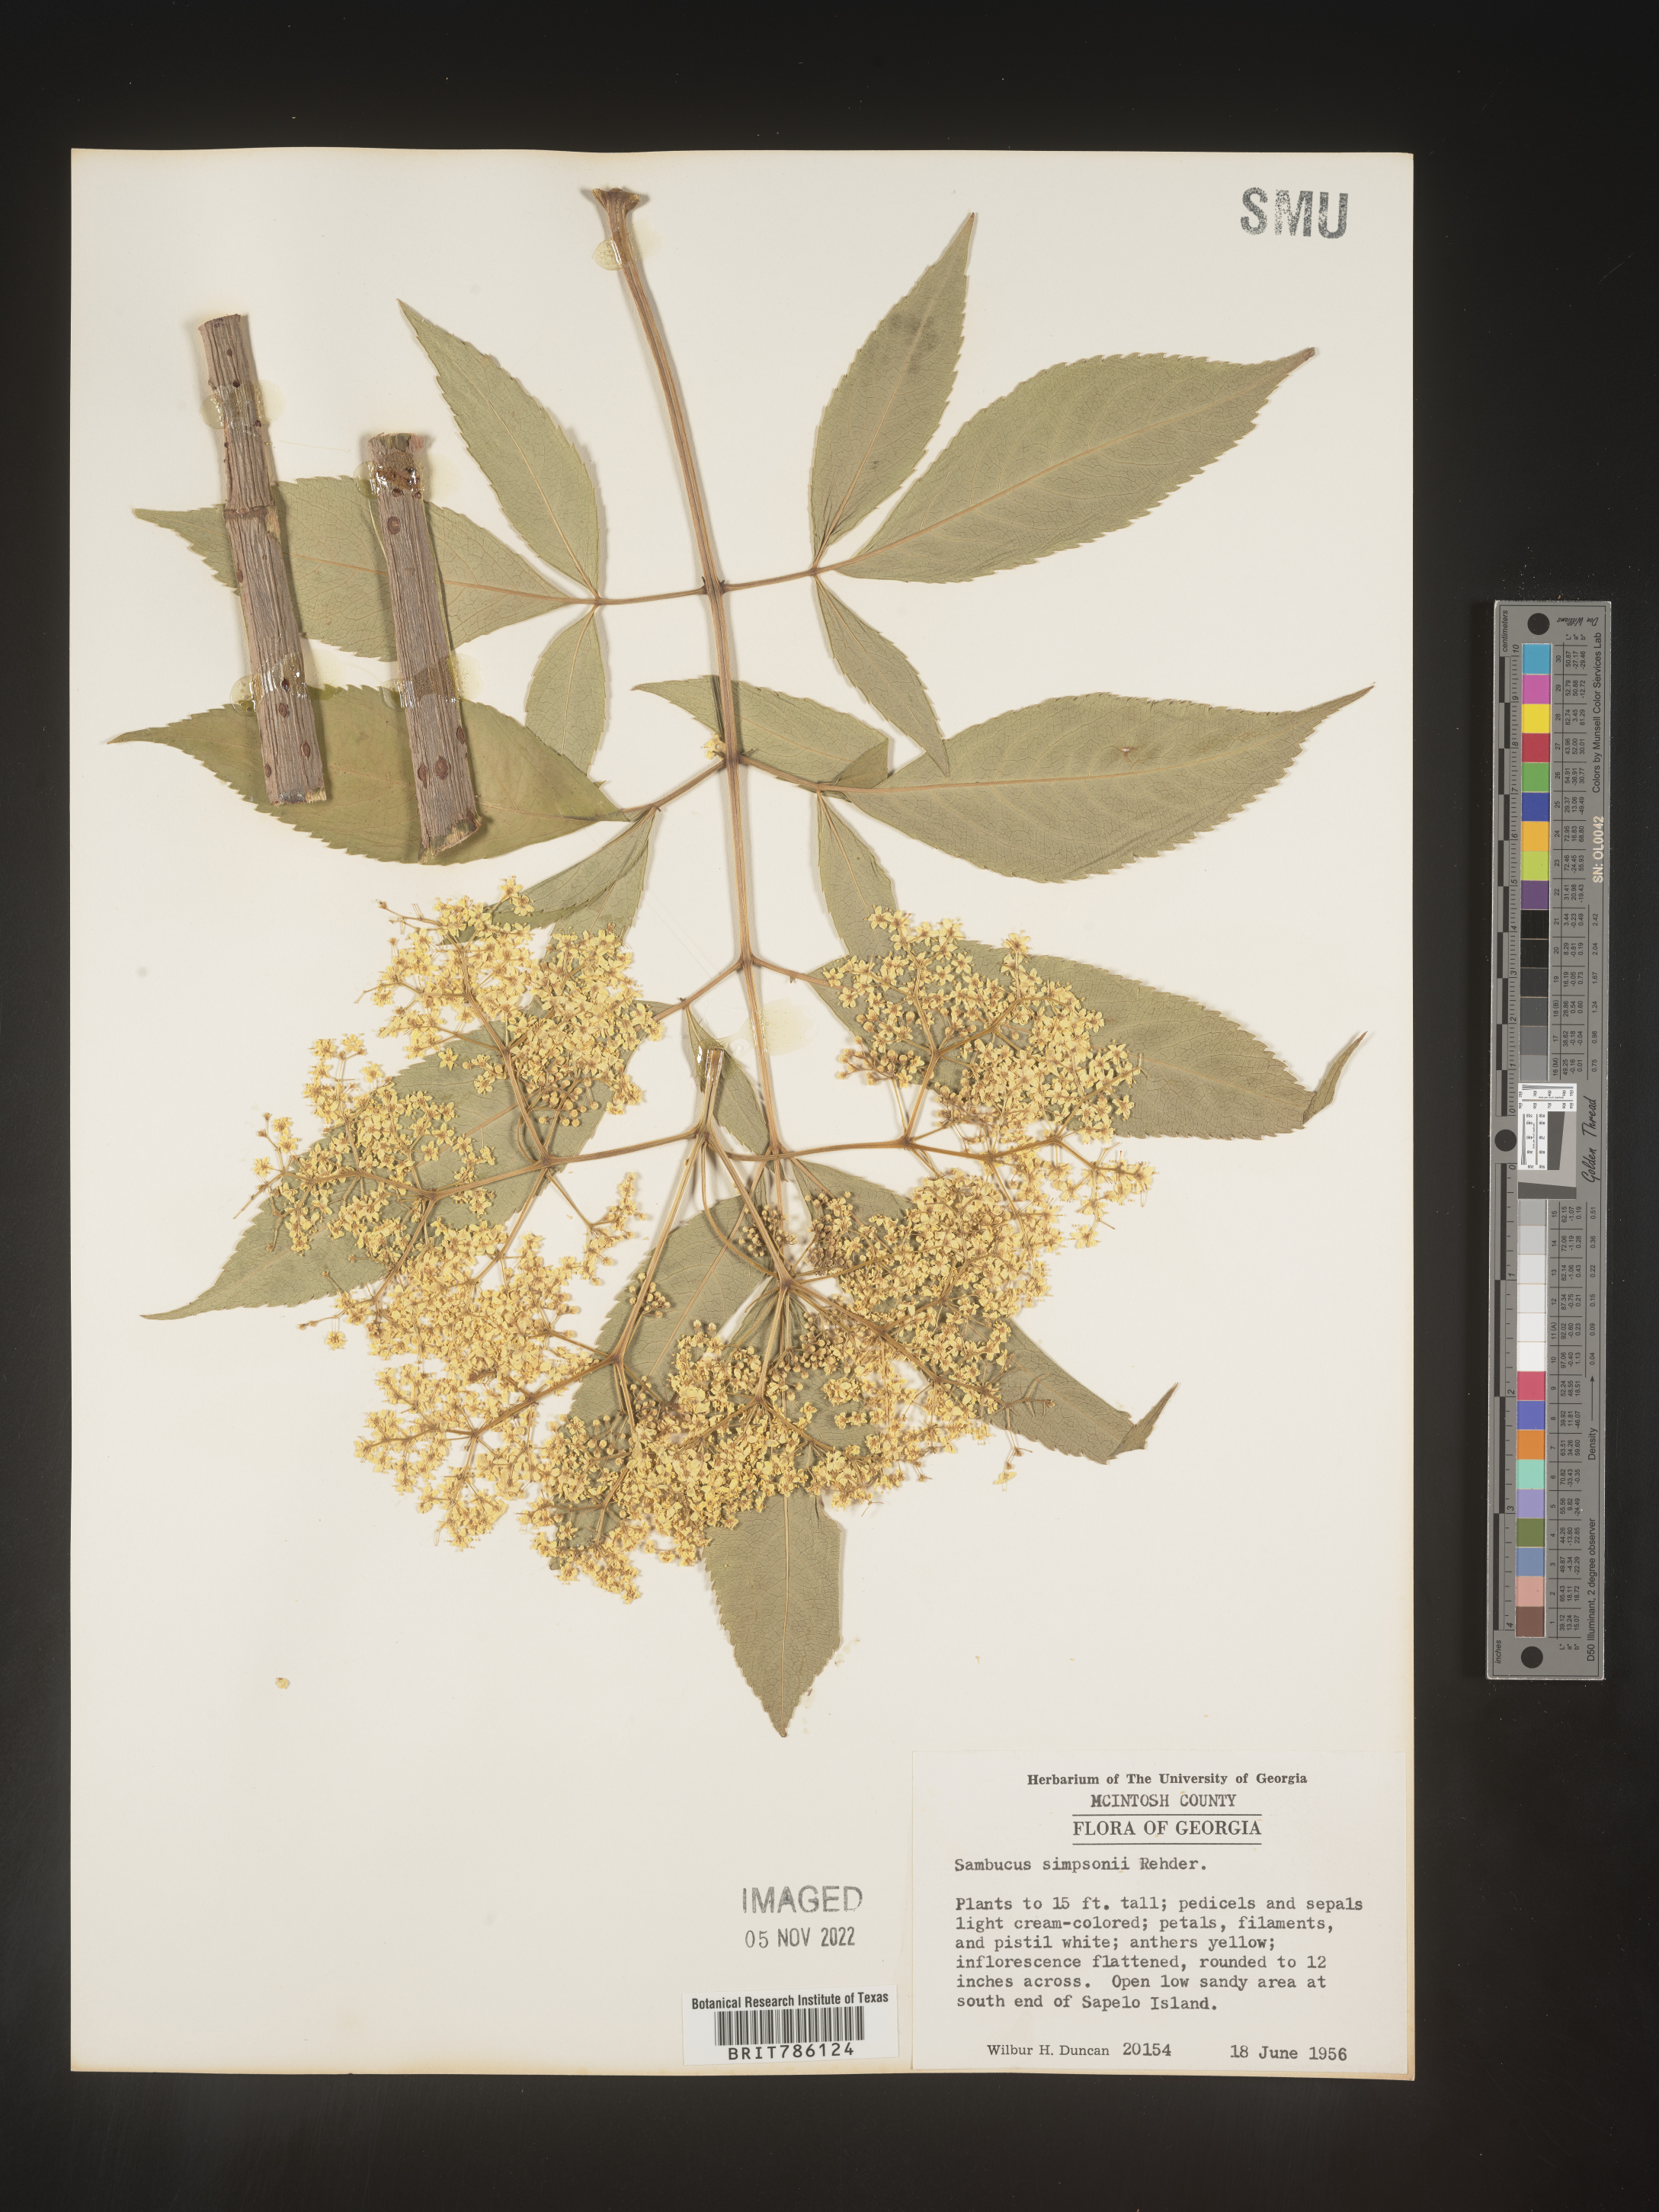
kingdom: Plantae
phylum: Tracheophyta
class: Magnoliopsida
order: Dipsacales
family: Viburnaceae
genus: Sambucus
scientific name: Sambucus
